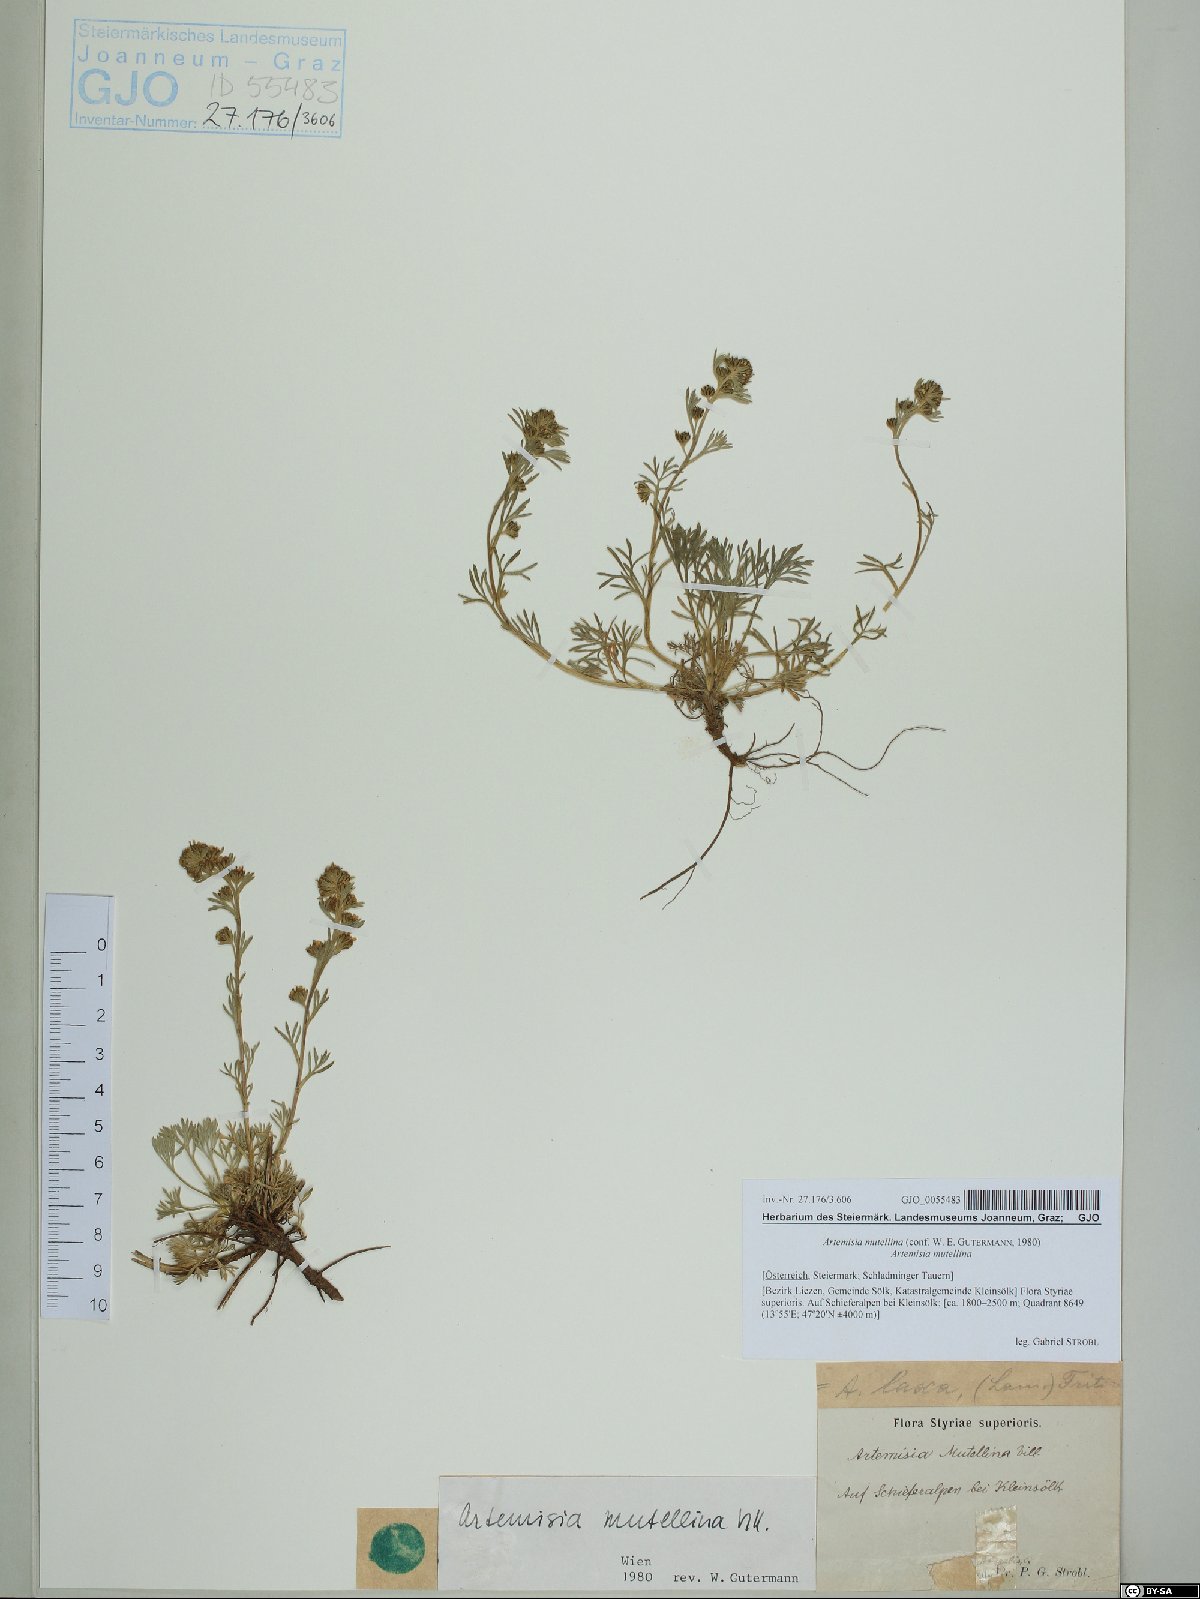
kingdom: Plantae
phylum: Tracheophyta
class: Magnoliopsida
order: Asterales
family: Asteraceae
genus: Artemisia
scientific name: Artemisia mutellina
